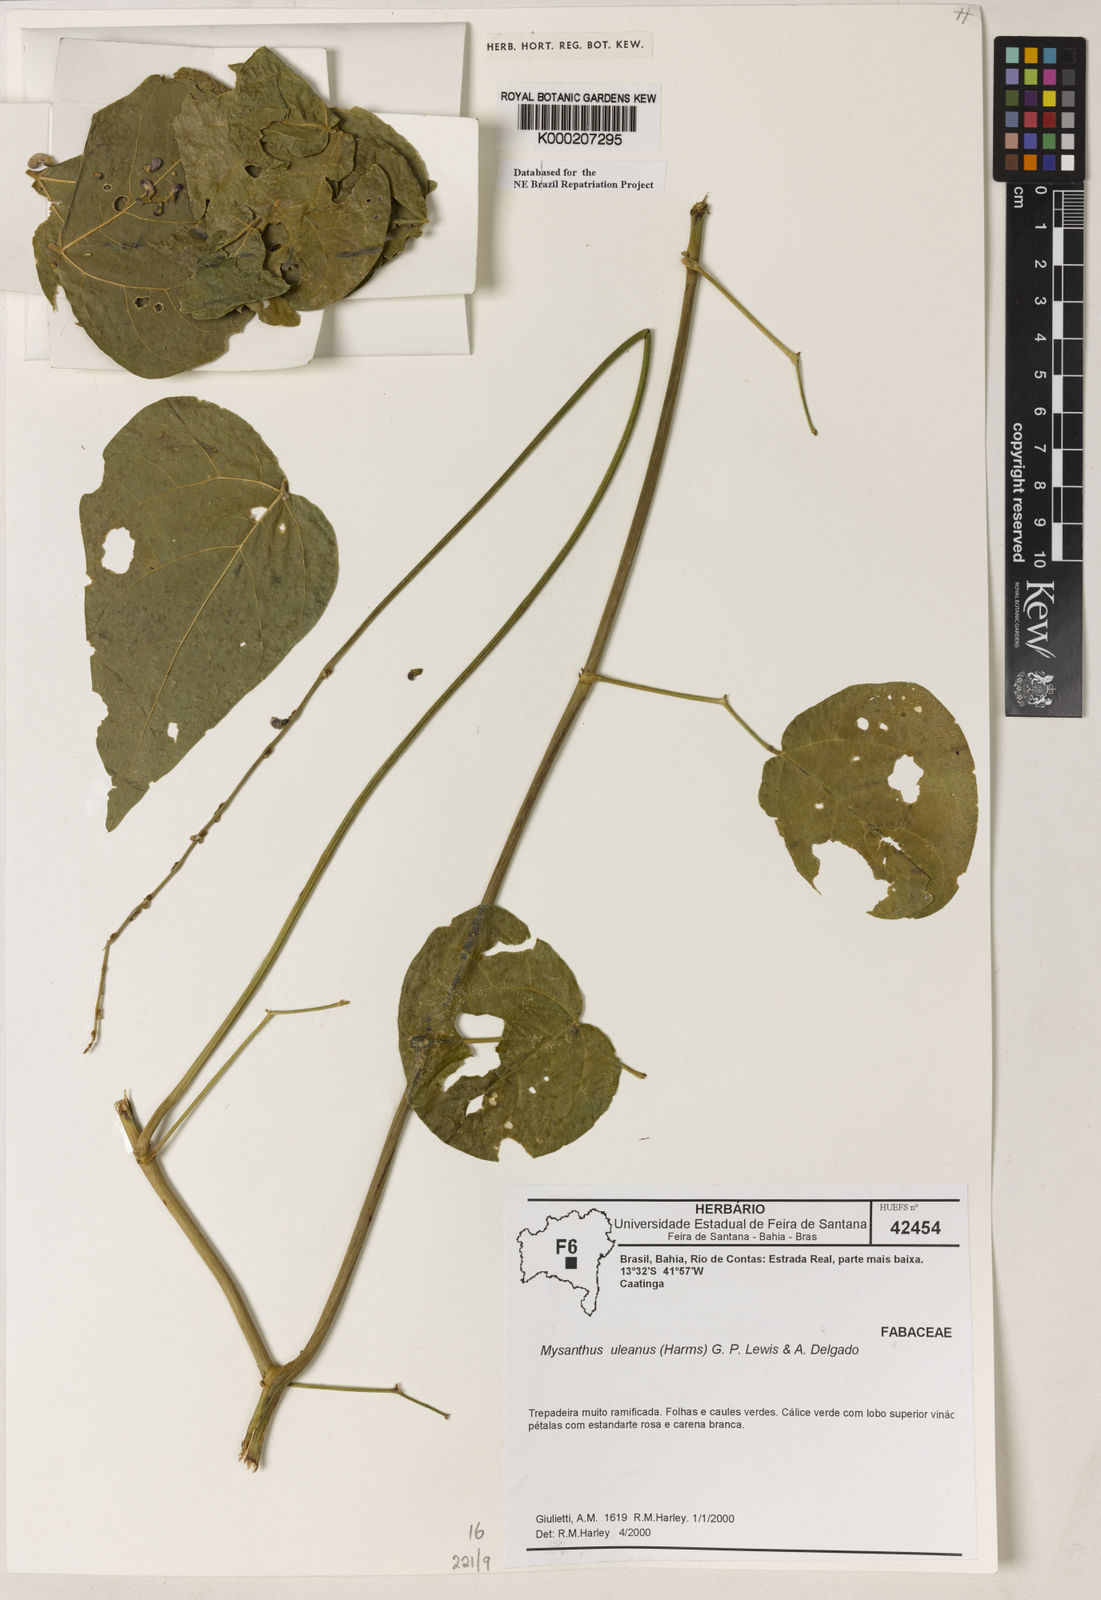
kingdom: Plantae
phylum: Tracheophyta
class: Magnoliopsida
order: Fabales
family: Fabaceae
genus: Mysanthus
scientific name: Mysanthus uleanus
